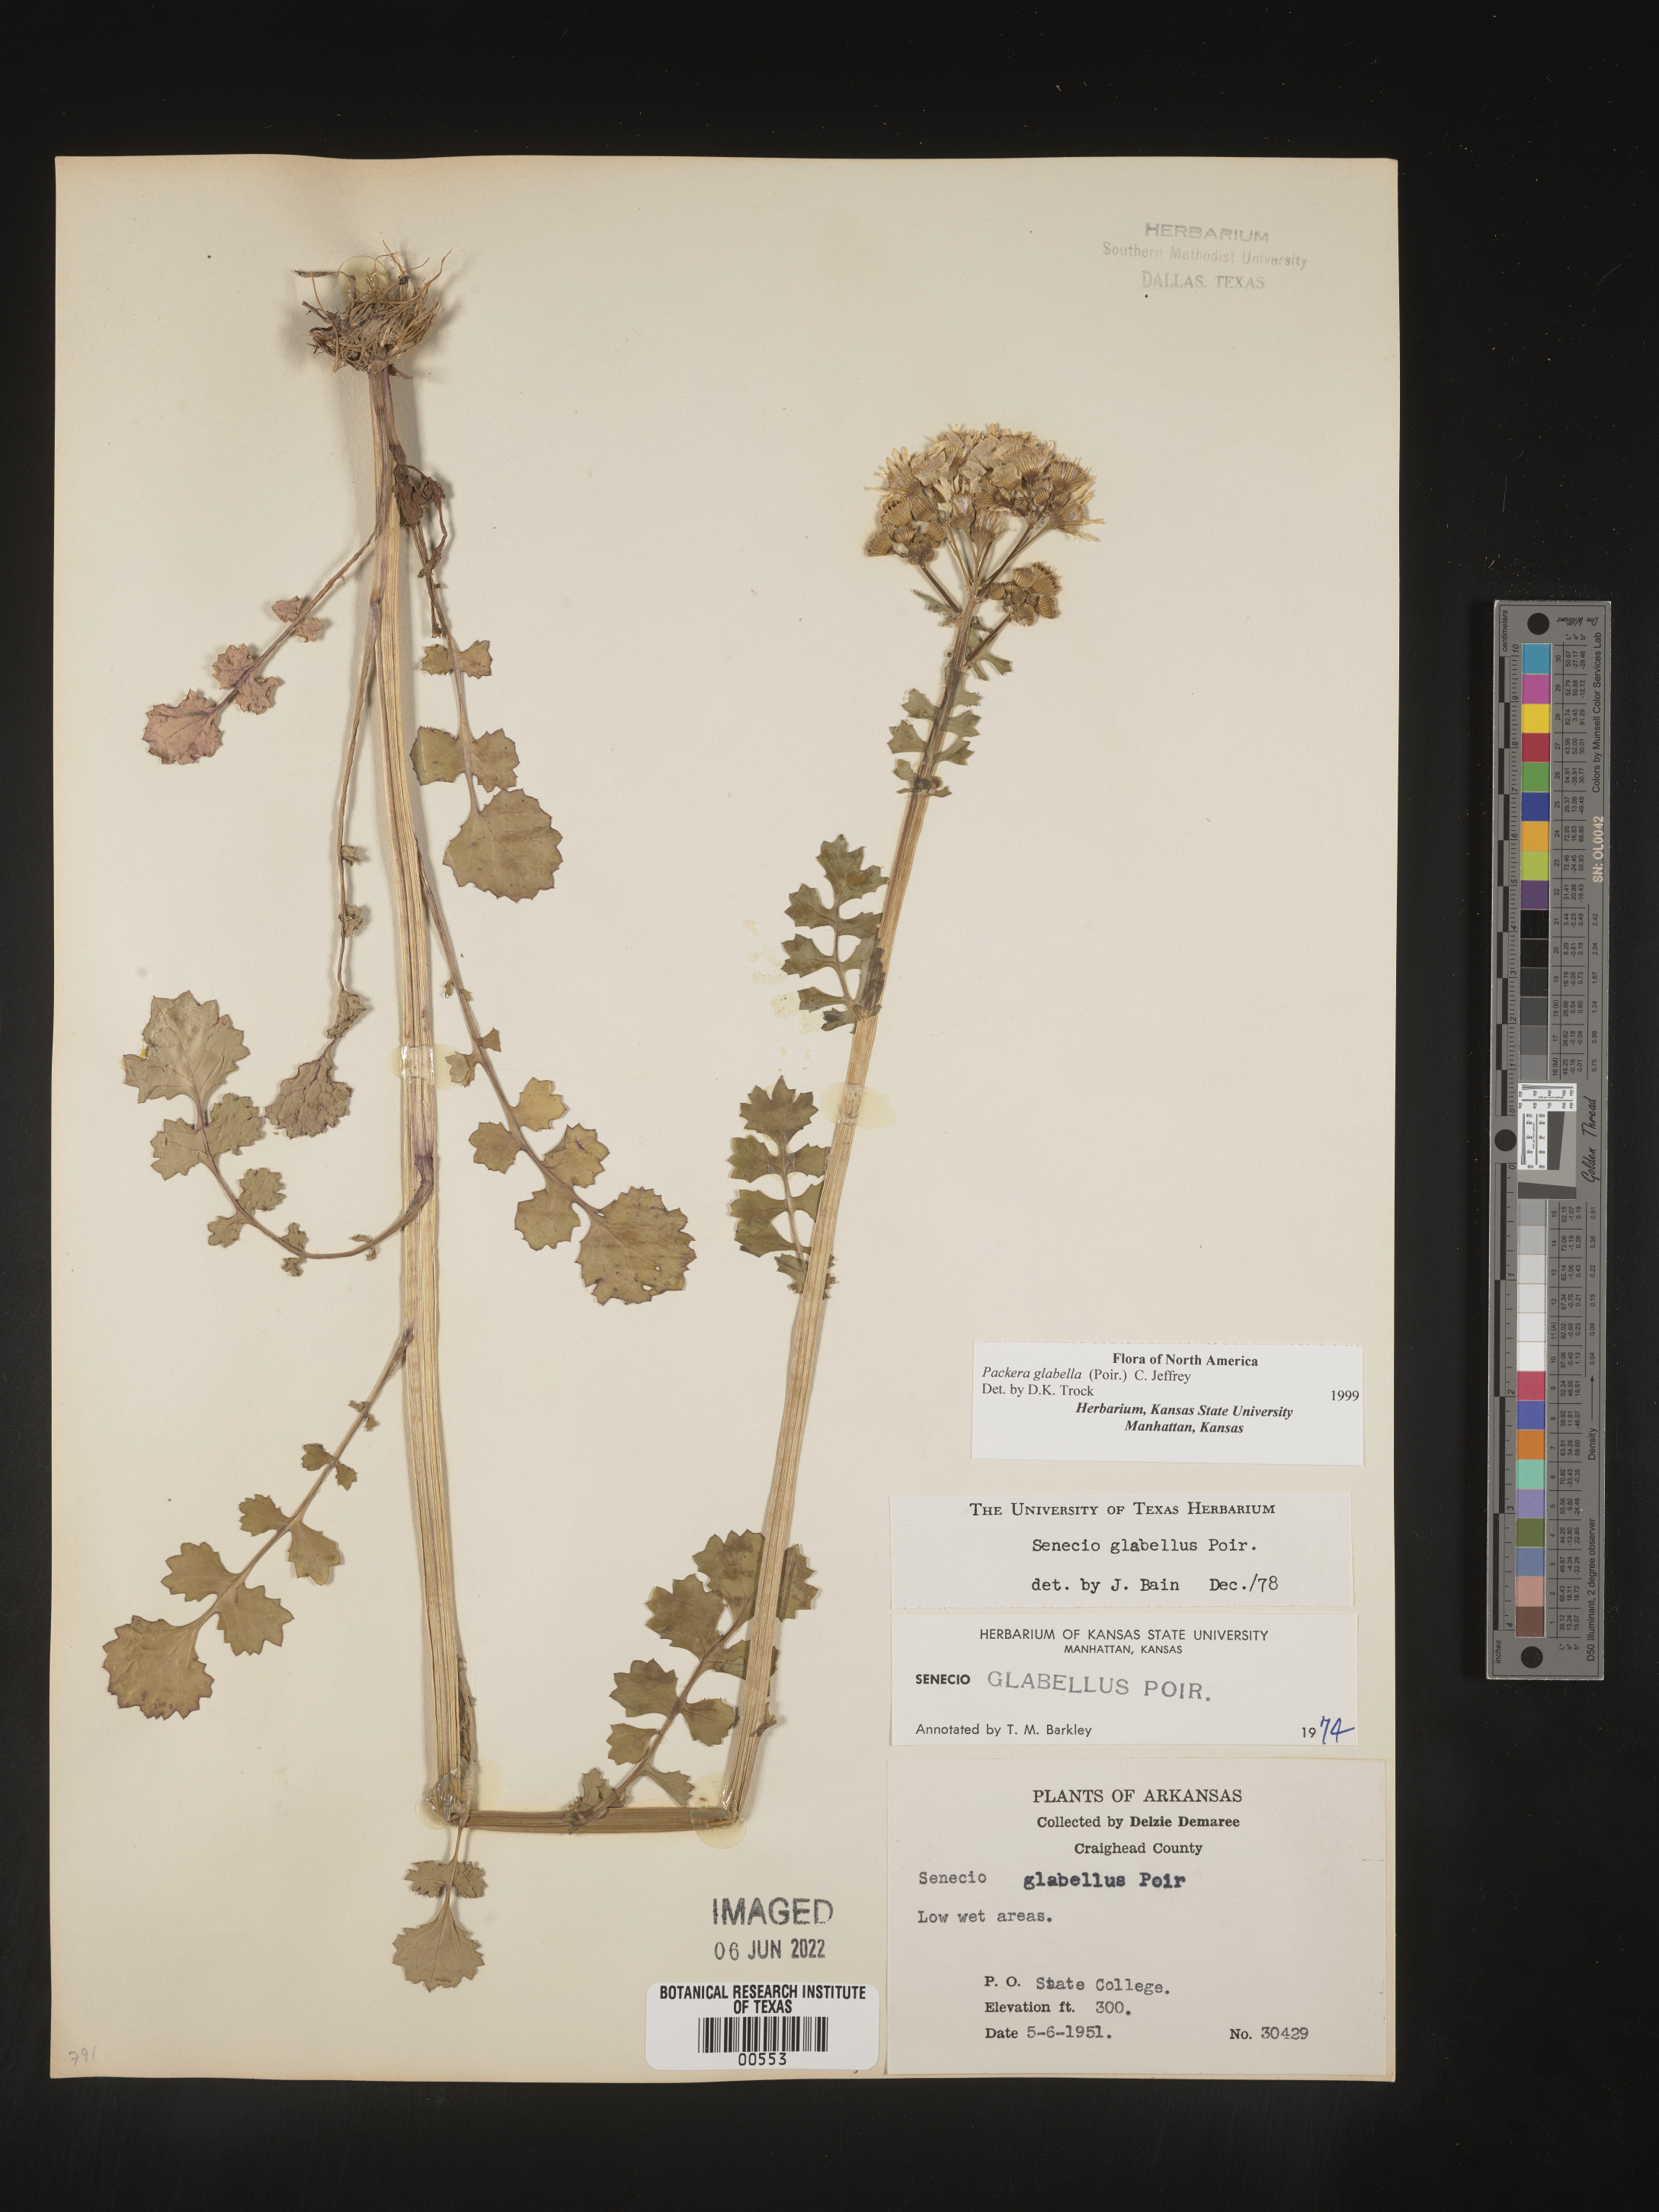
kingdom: Plantae
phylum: Tracheophyta
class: Magnoliopsida
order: Asterales
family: Asteraceae
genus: Packera
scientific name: Packera glabella
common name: Butterweed
